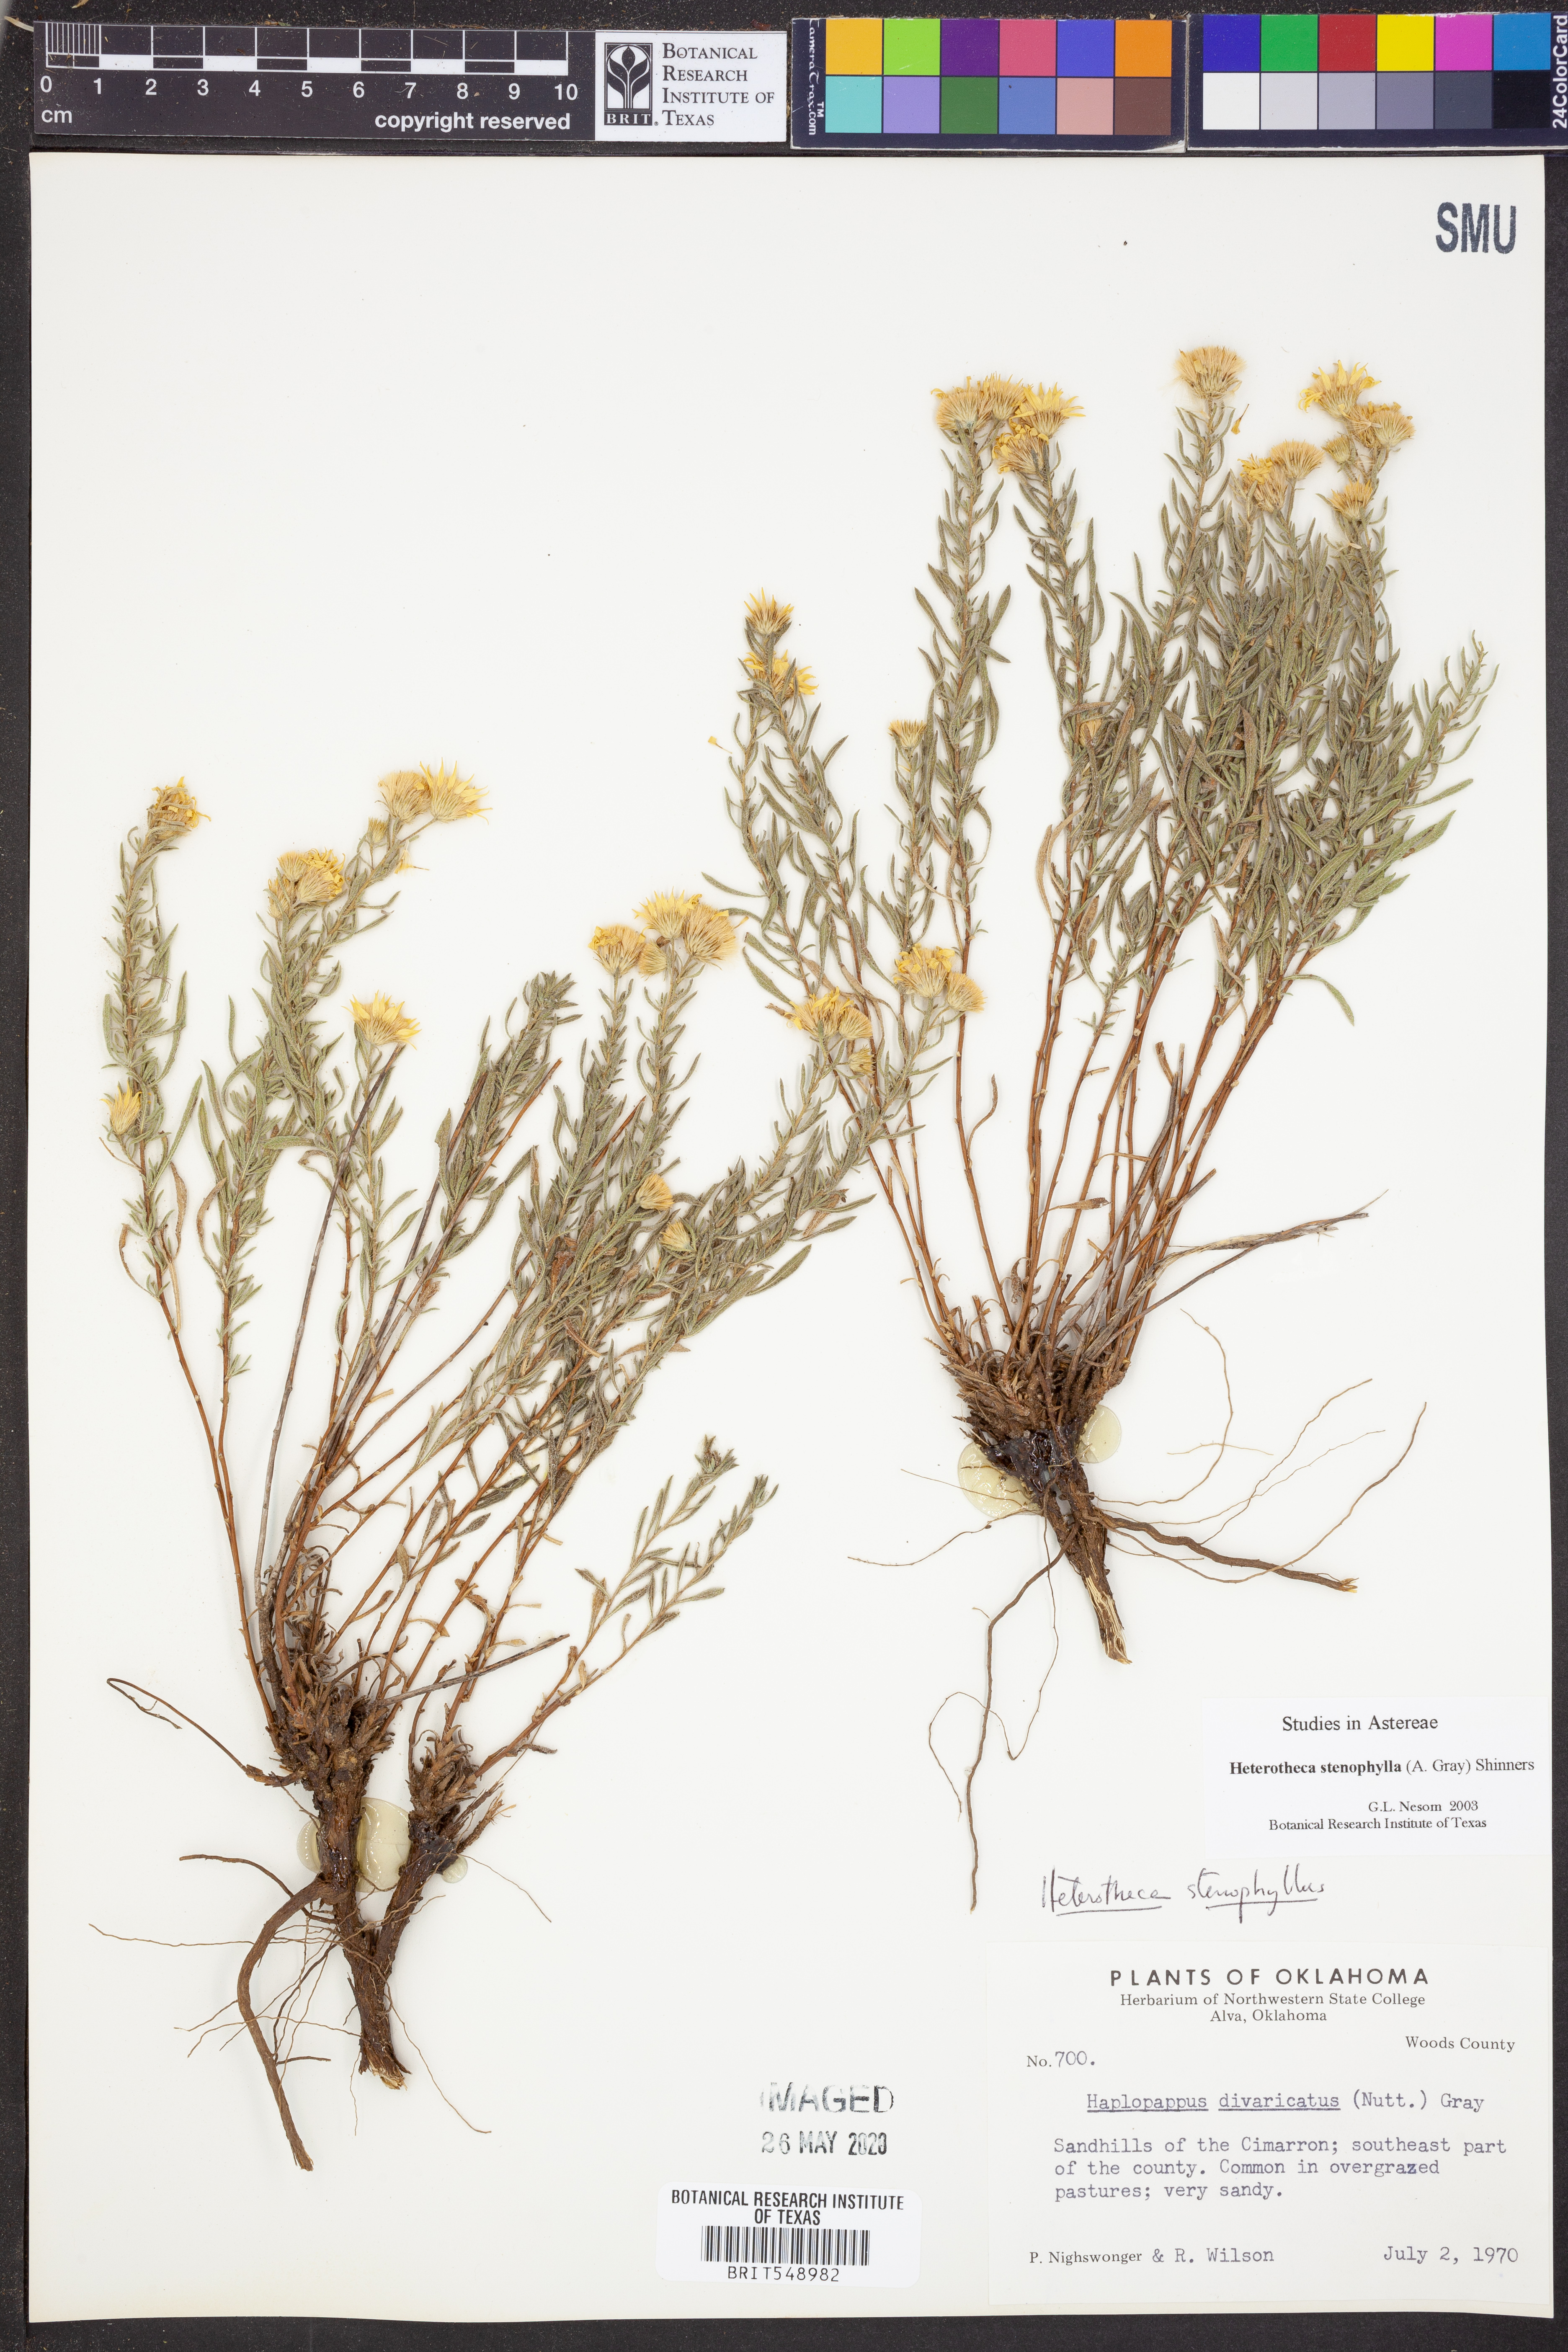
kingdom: Plantae
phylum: Tracheophyta
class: Magnoliopsida
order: Asterales
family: Asteraceae
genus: Heterotheca
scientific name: Heterotheca stenophylla
